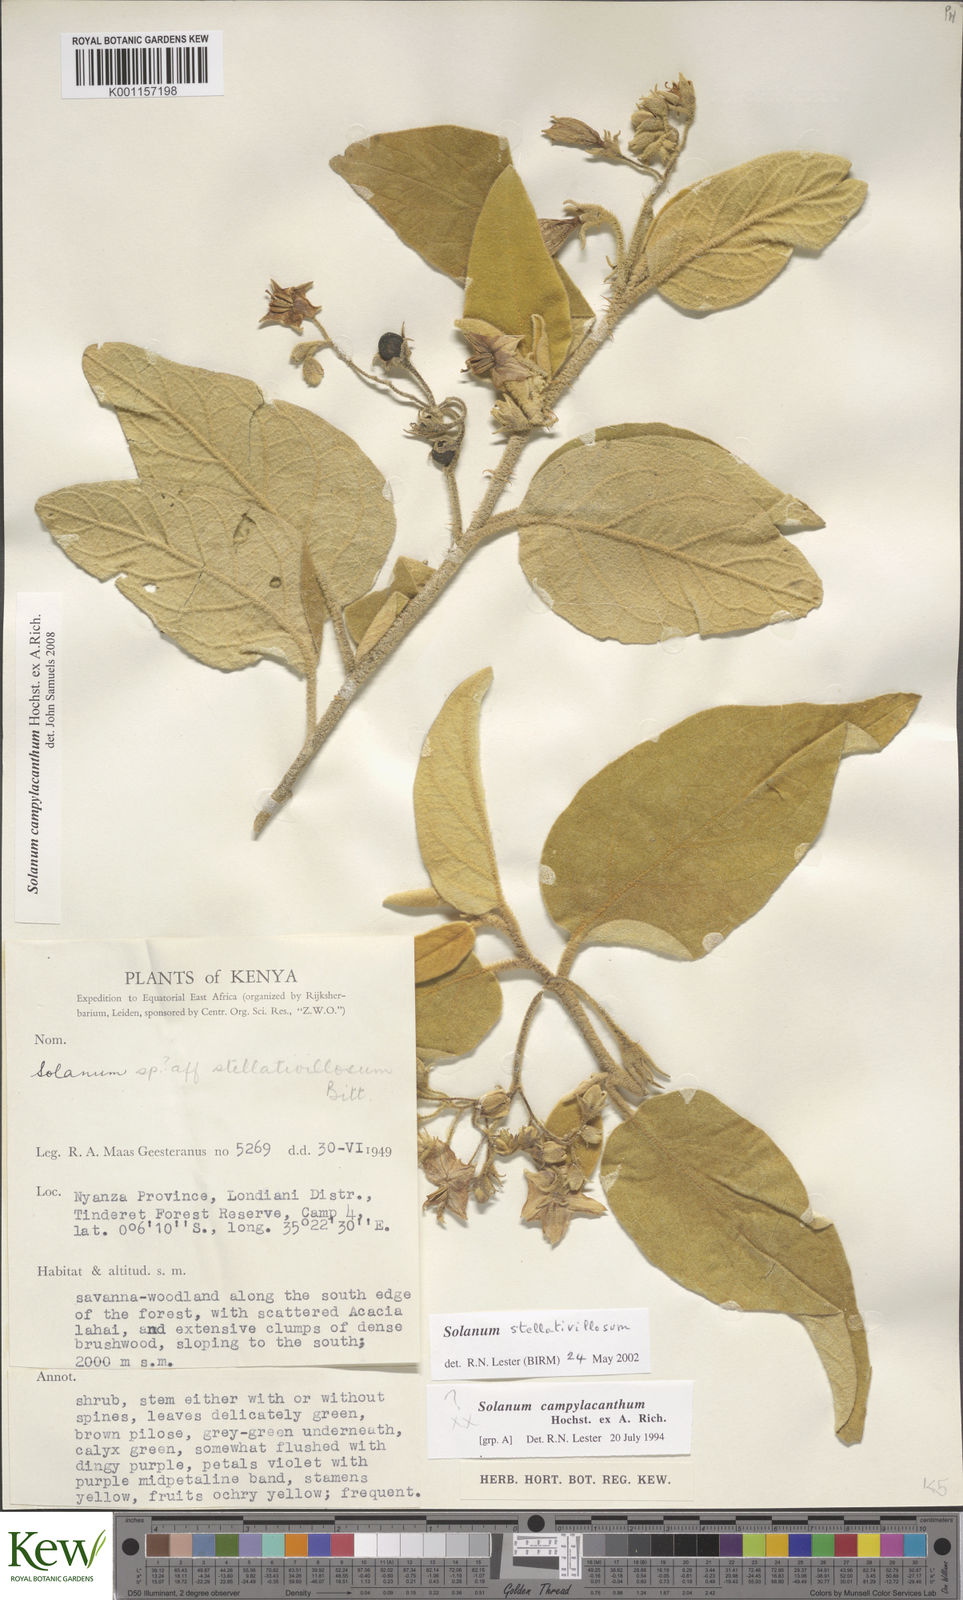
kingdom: Plantae
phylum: Tracheophyta
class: Magnoliopsida
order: Solanales
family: Solanaceae
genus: Solanum
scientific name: Solanum campylacanthum
